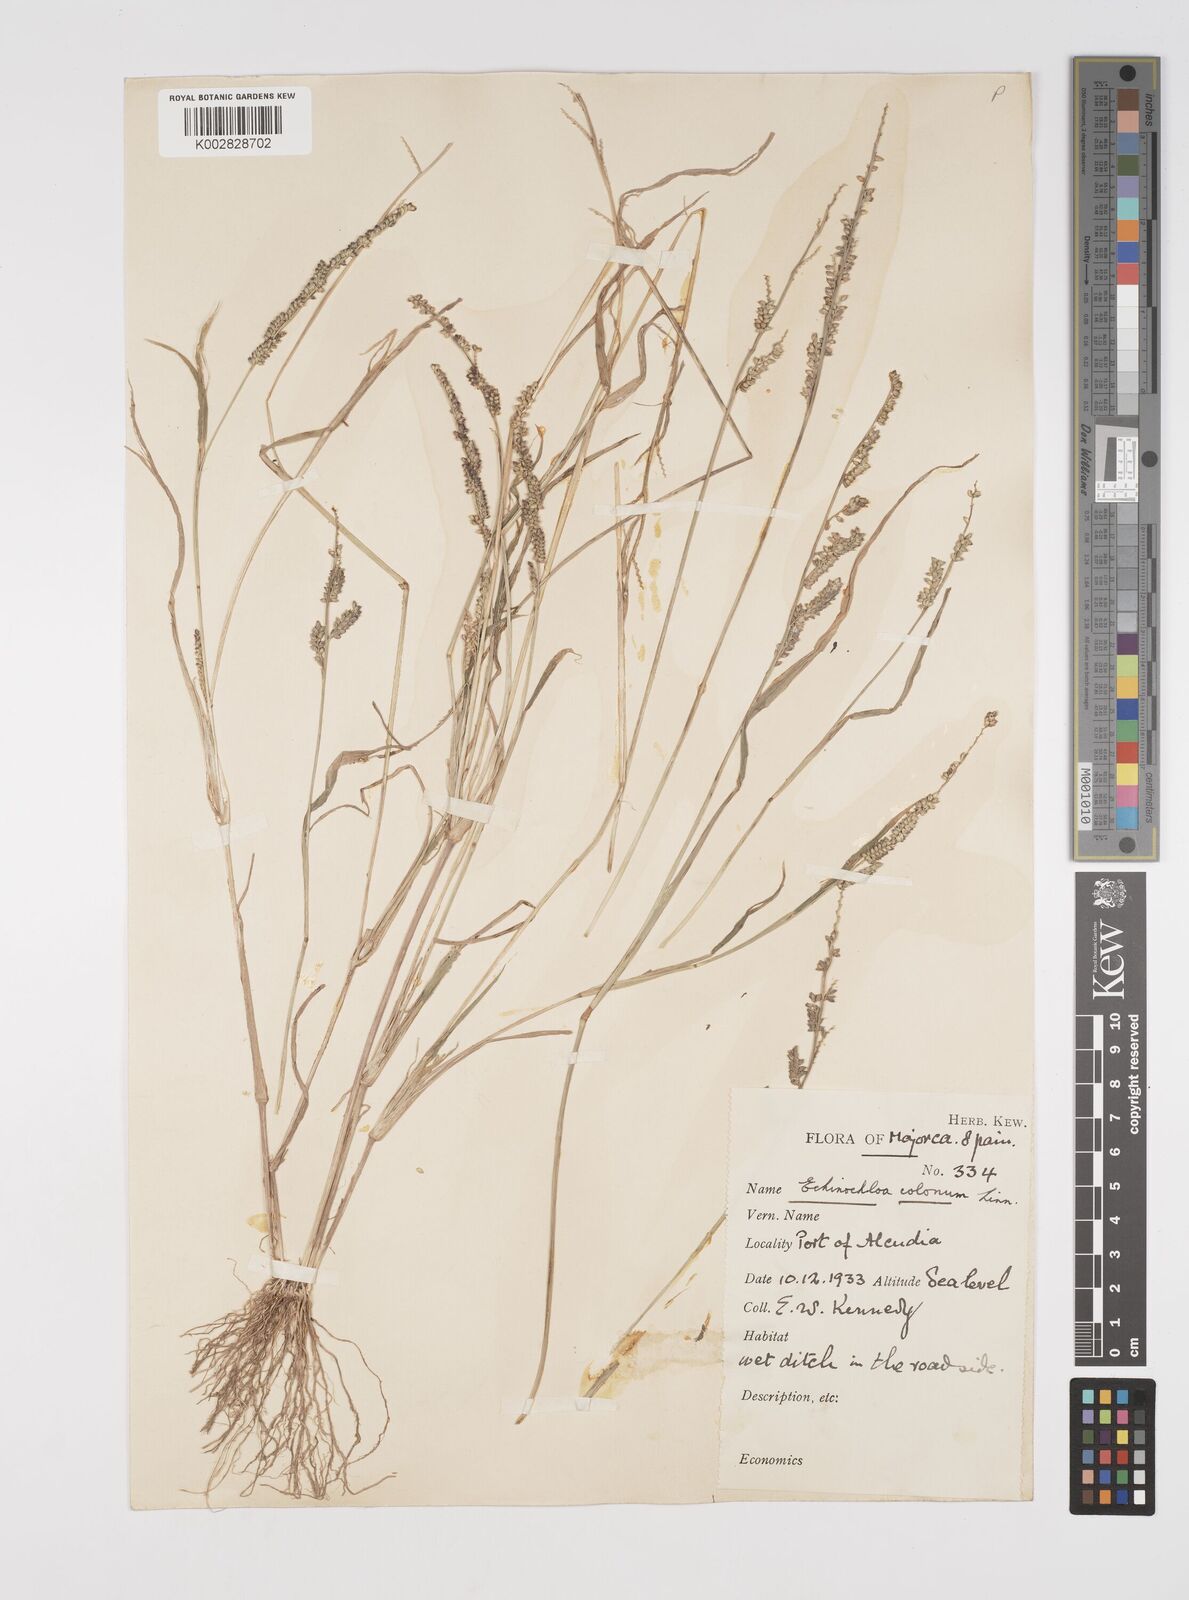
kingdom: Plantae
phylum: Tracheophyta
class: Liliopsida
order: Poales
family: Poaceae
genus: Echinochloa
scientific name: Echinochloa colonum
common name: Jungle rice
